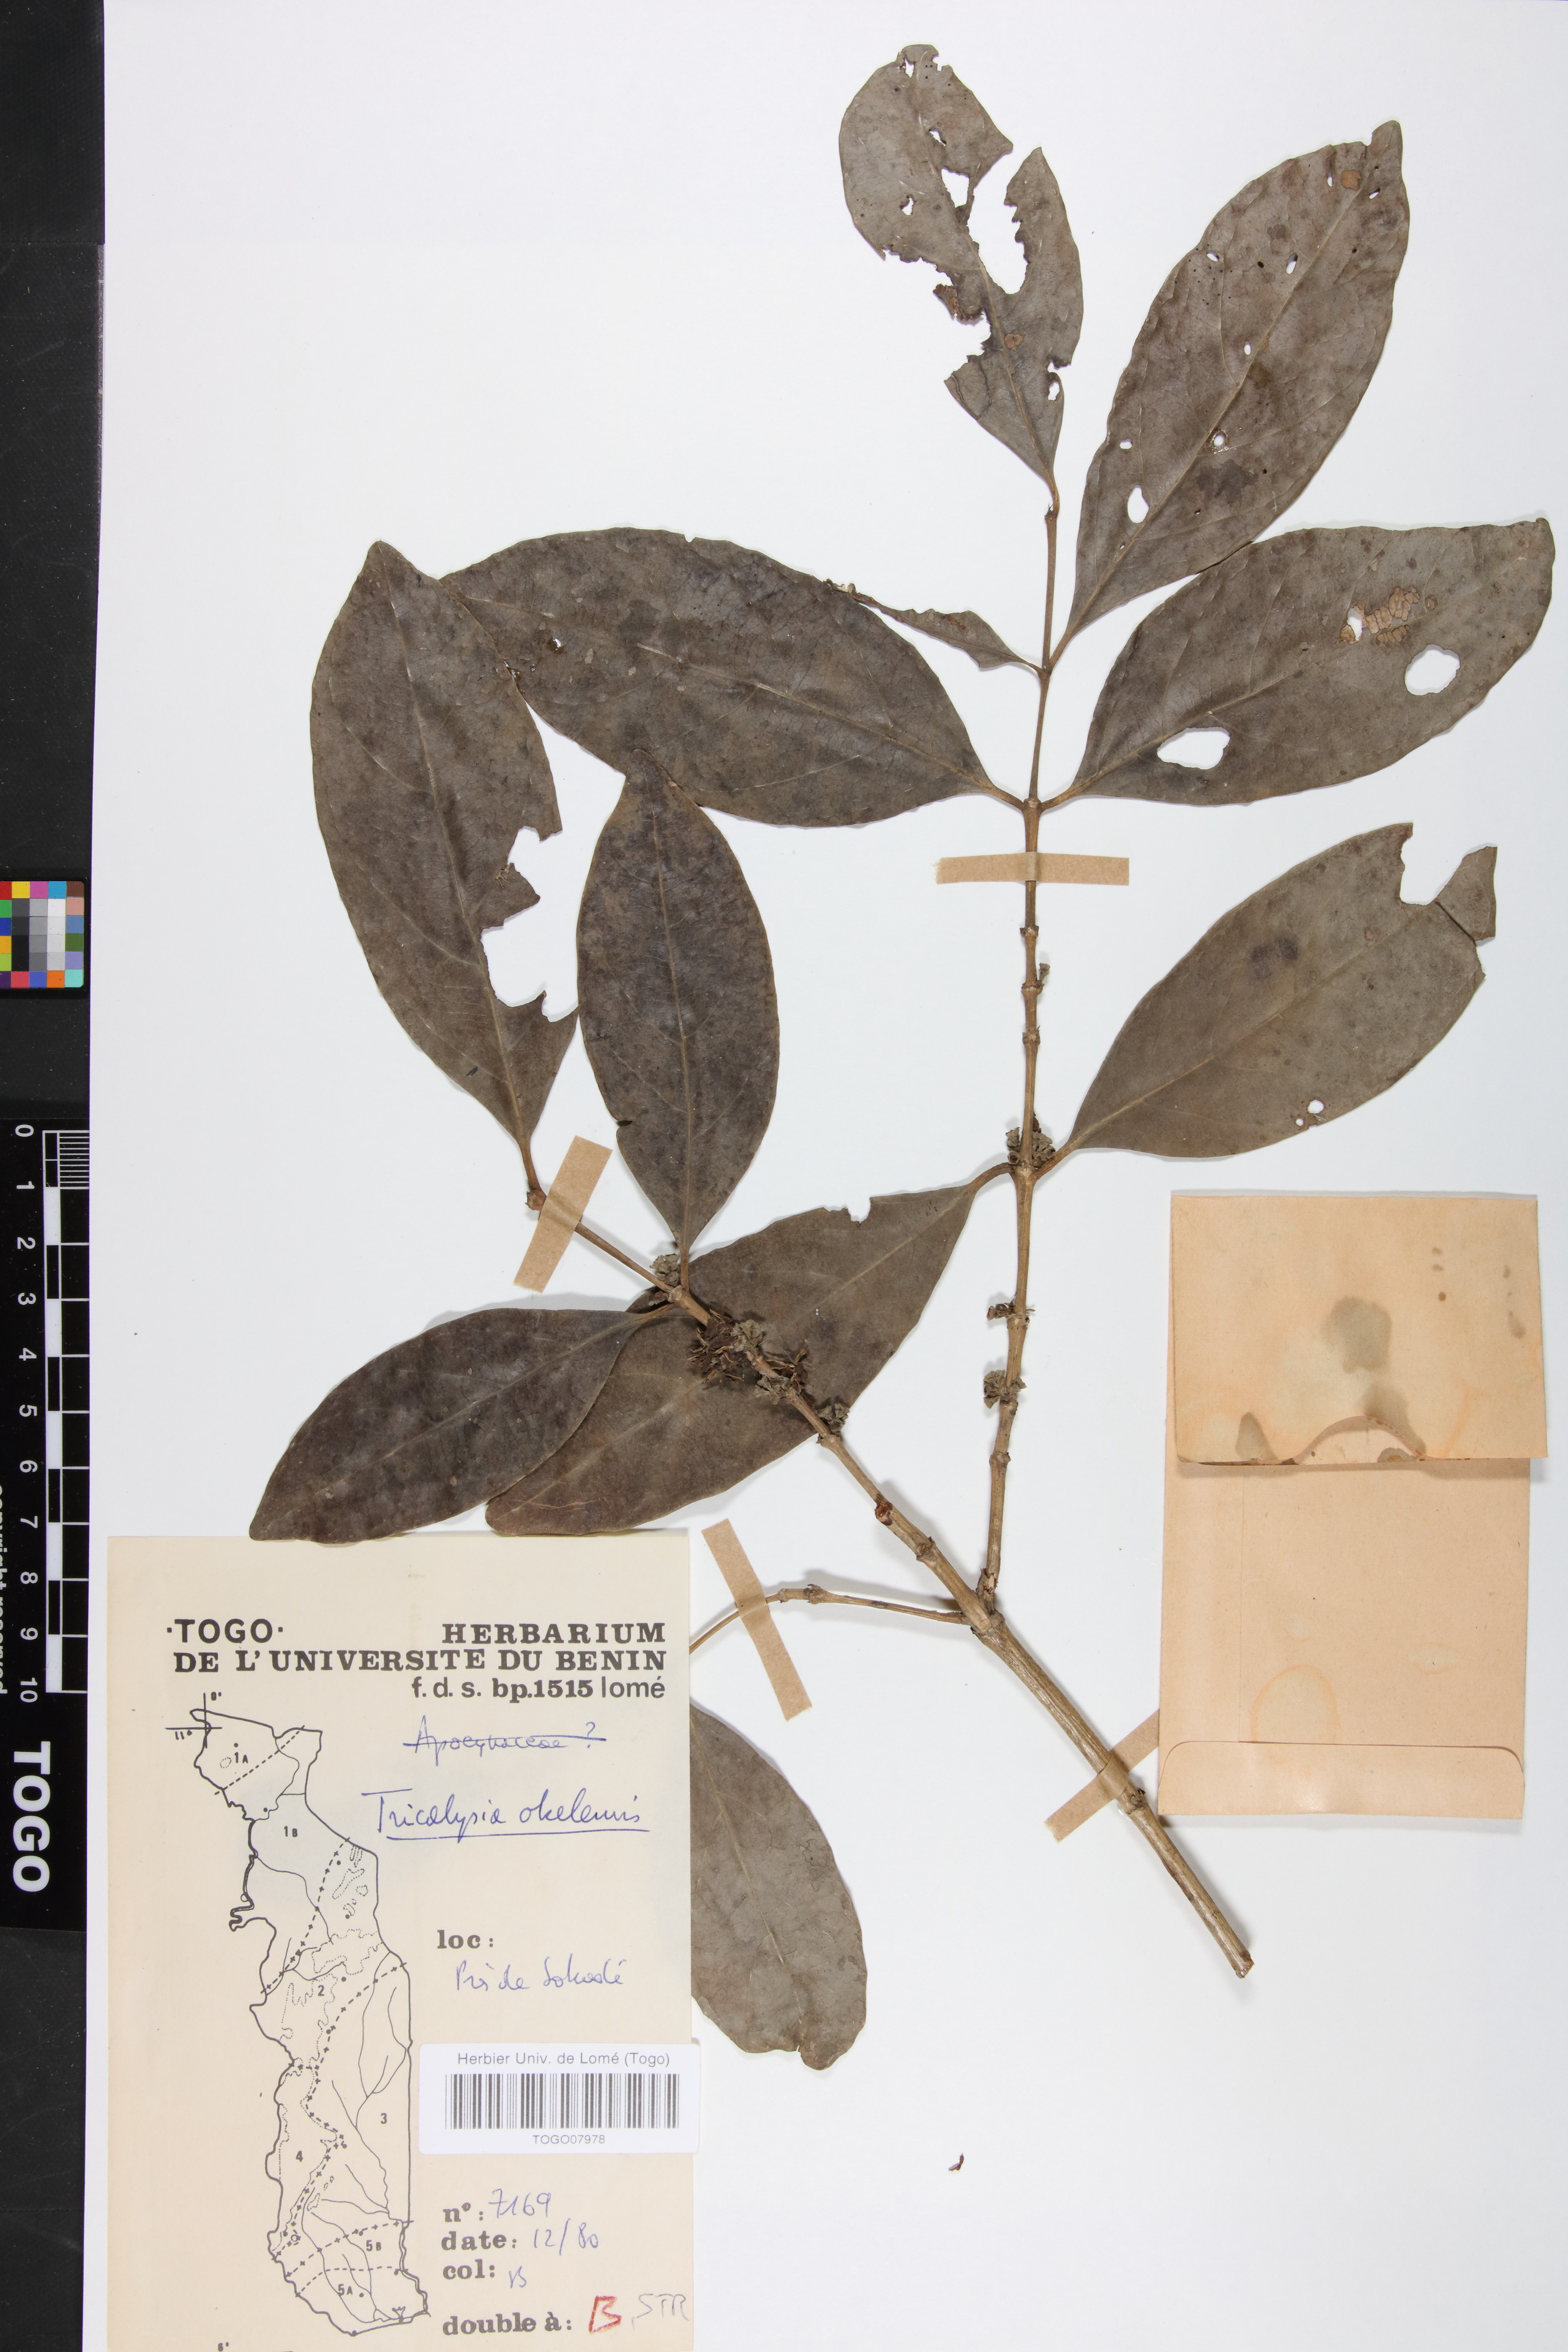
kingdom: Plantae
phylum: Tracheophyta
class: Magnoliopsida
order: Gentianales
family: Rubiaceae
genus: Tricalysia
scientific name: Tricalysia okelensis
